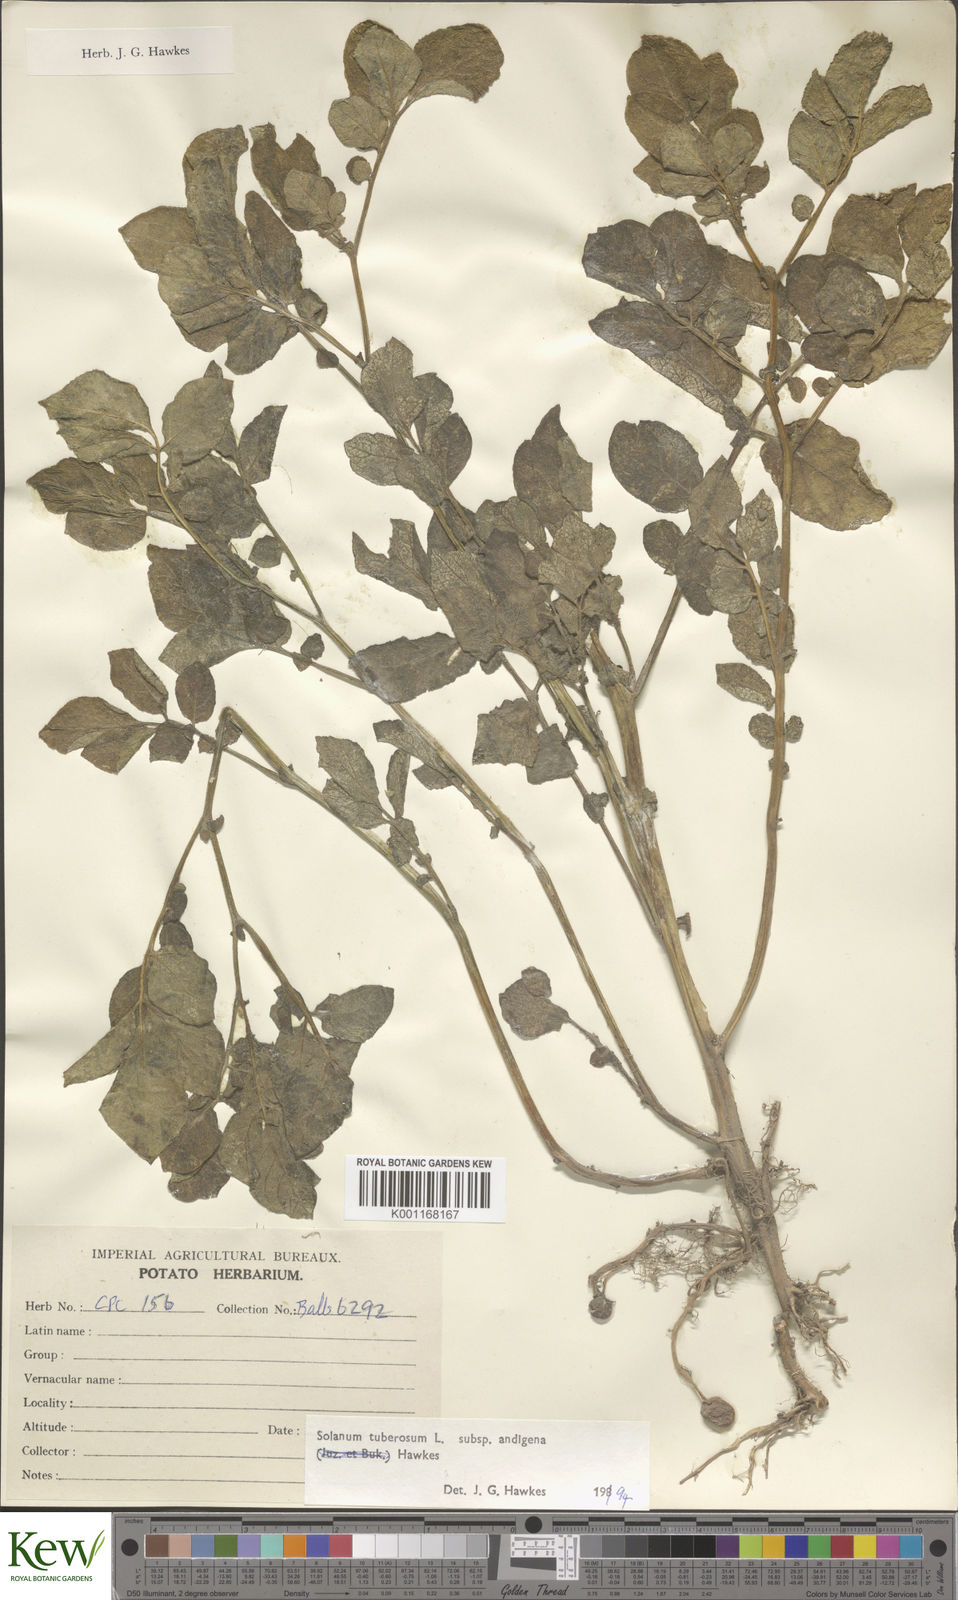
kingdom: Plantae
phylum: Tracheophyta
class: Magnoliopsida
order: Solanales
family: Solanaceae
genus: Solanum
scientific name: Solanum tuberosum
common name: Potato
